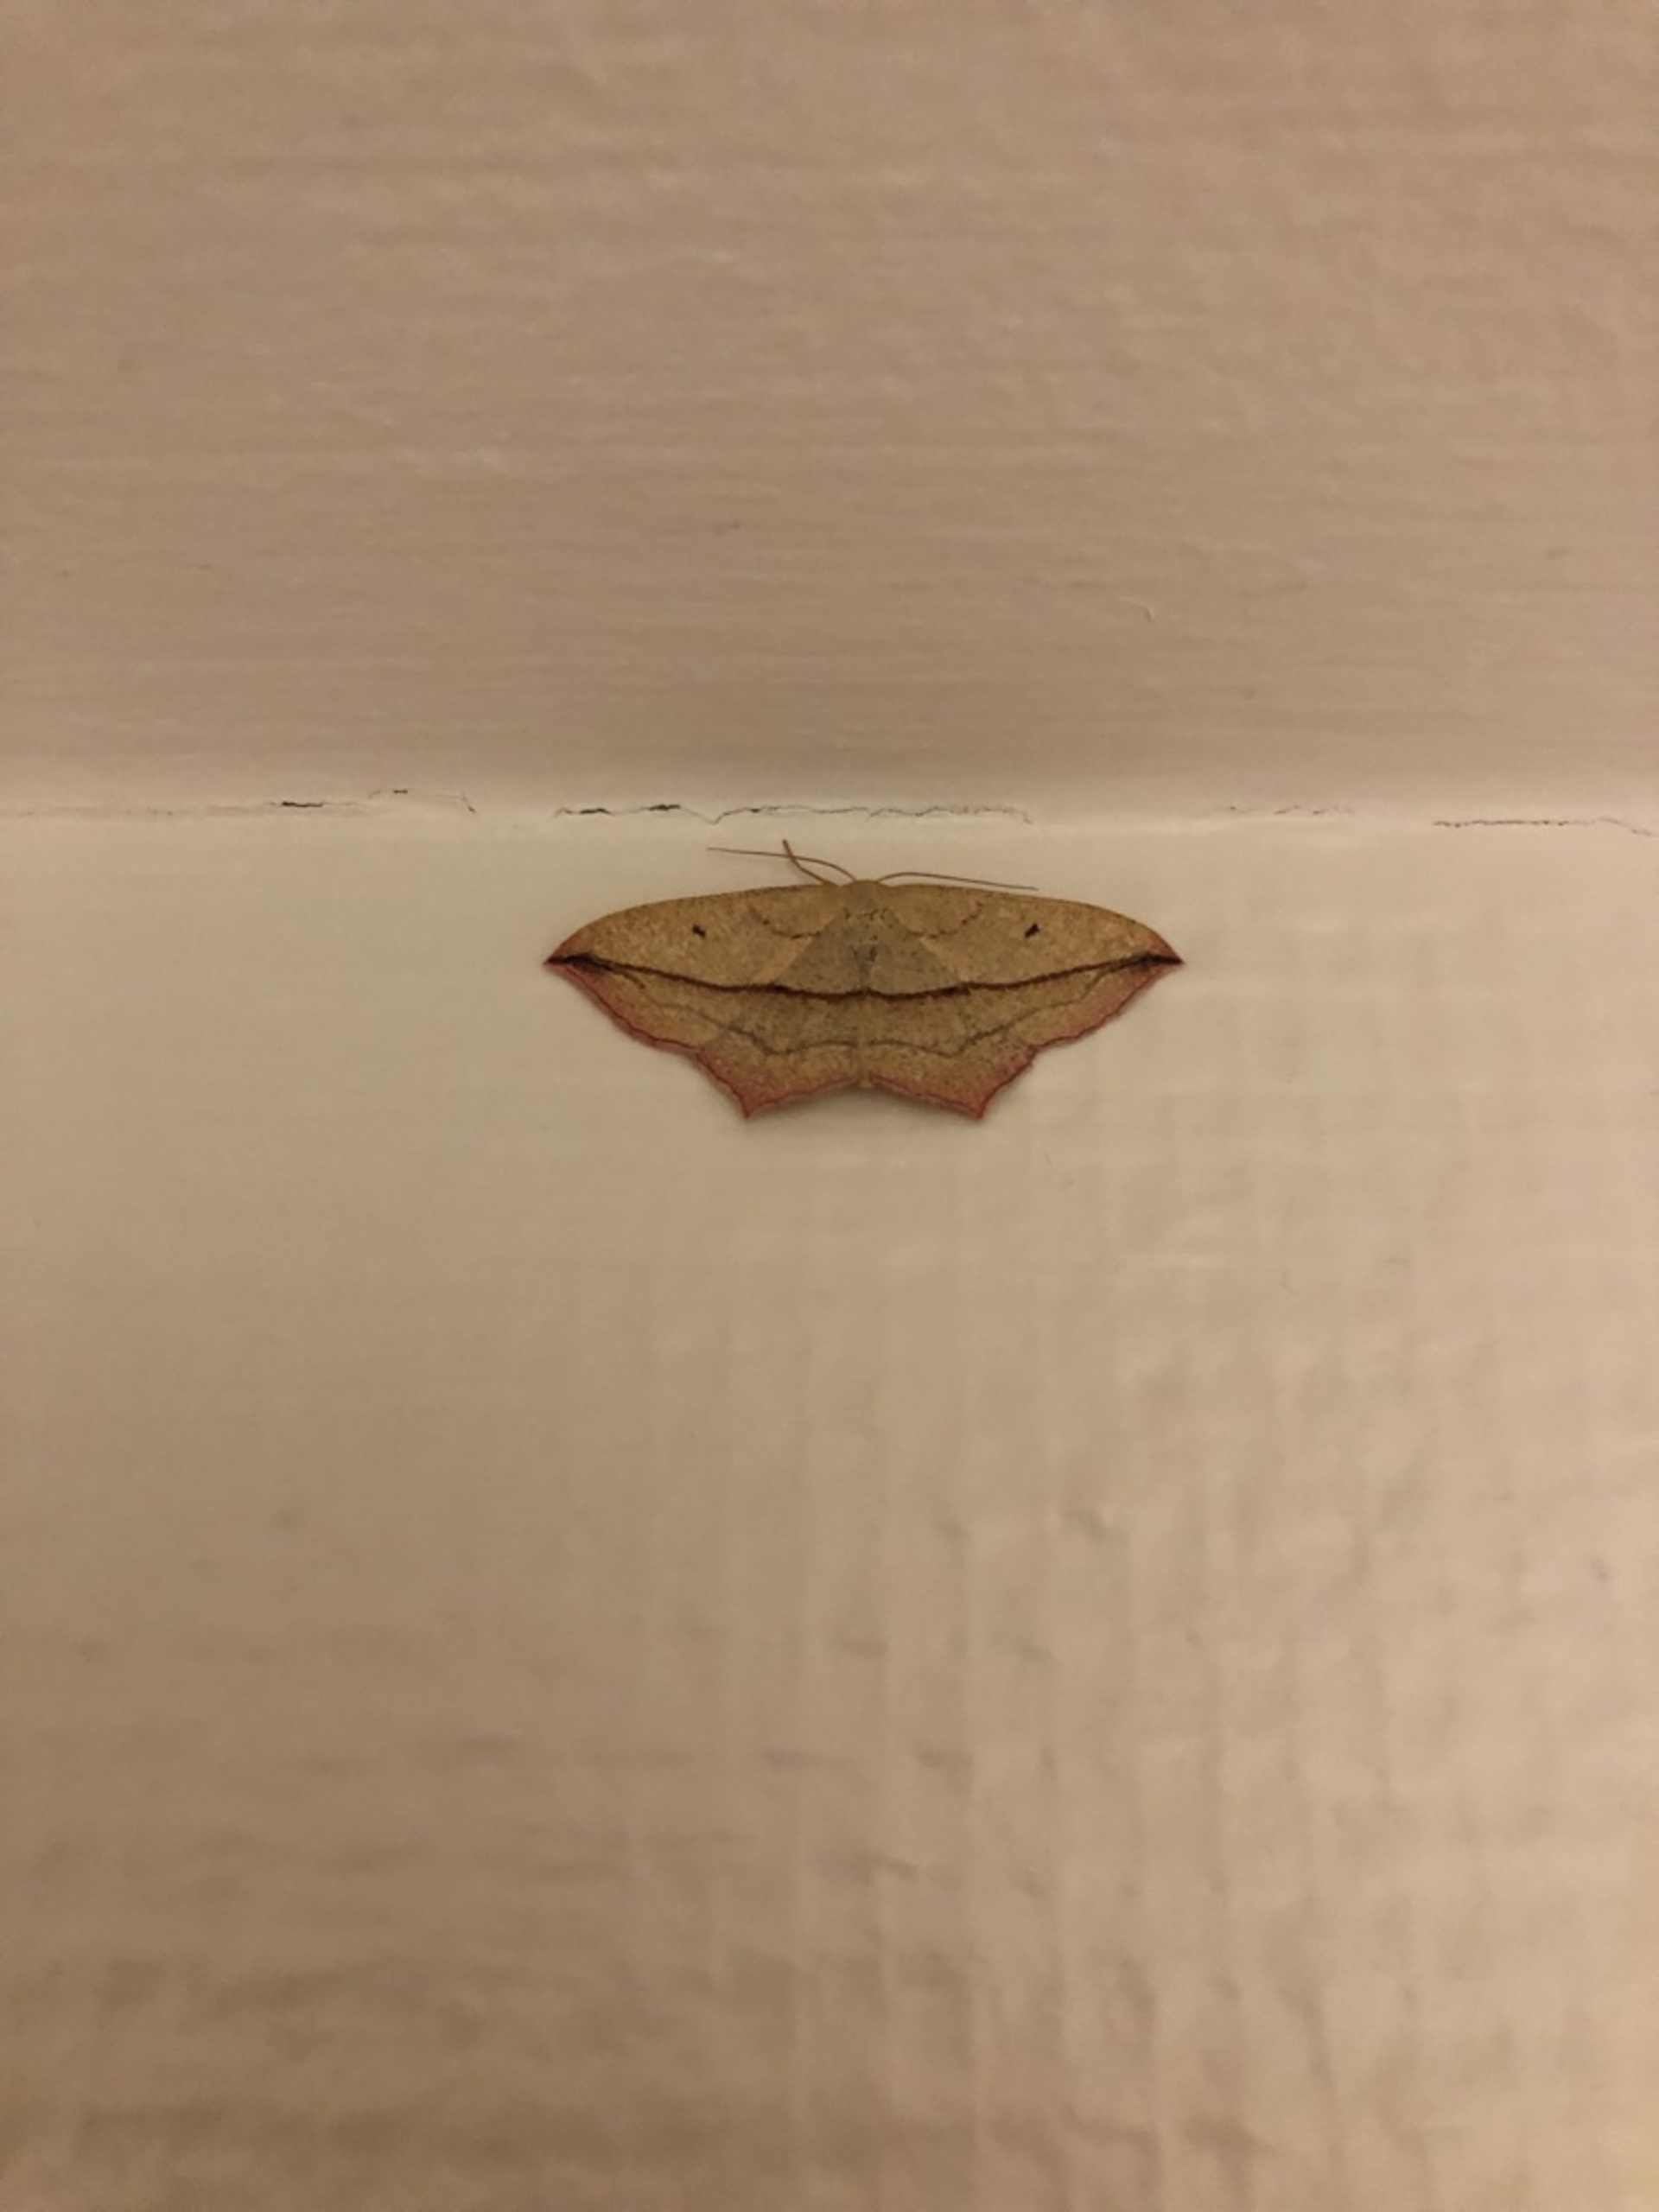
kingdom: Animalia
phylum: Arthropoda
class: Insecta
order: Lepidoptera
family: Geometridae
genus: Timandra
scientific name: Timandra comae
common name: Gul syremåler
